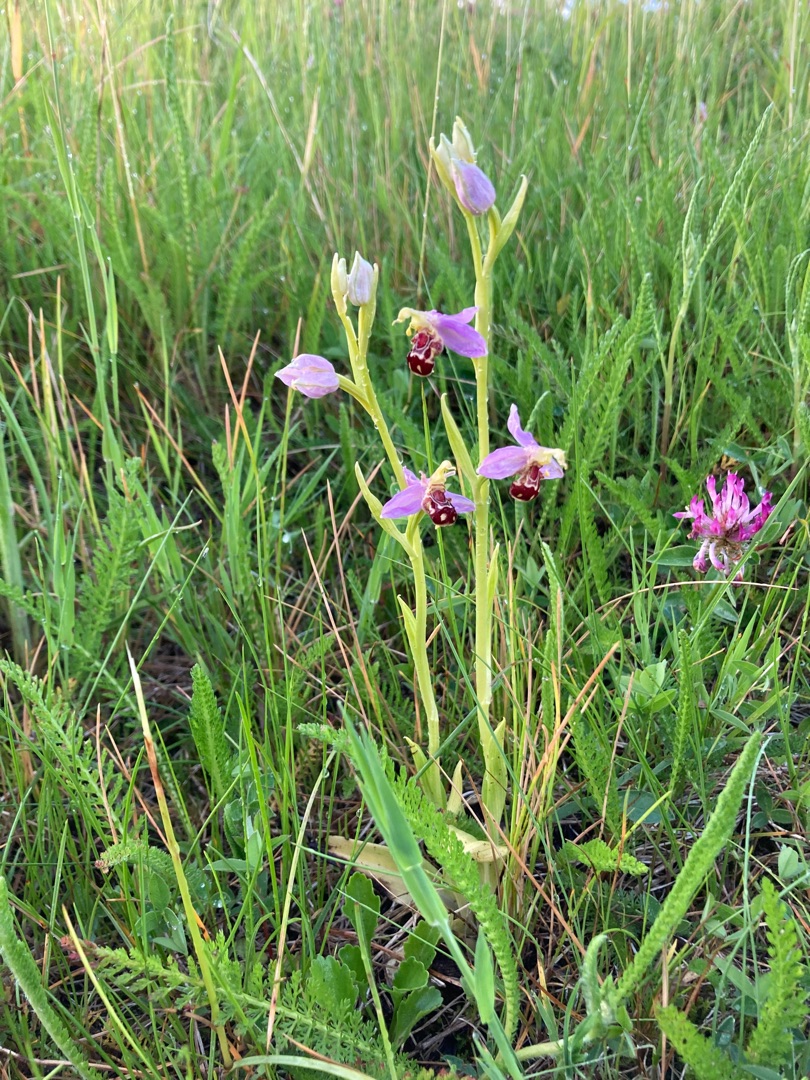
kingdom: Plantae
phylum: Tracheophyta
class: Liliopsida
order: Asparagales
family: Orchidaceae
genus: Ophrys
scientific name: Ophrys apifera
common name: Biblomst
